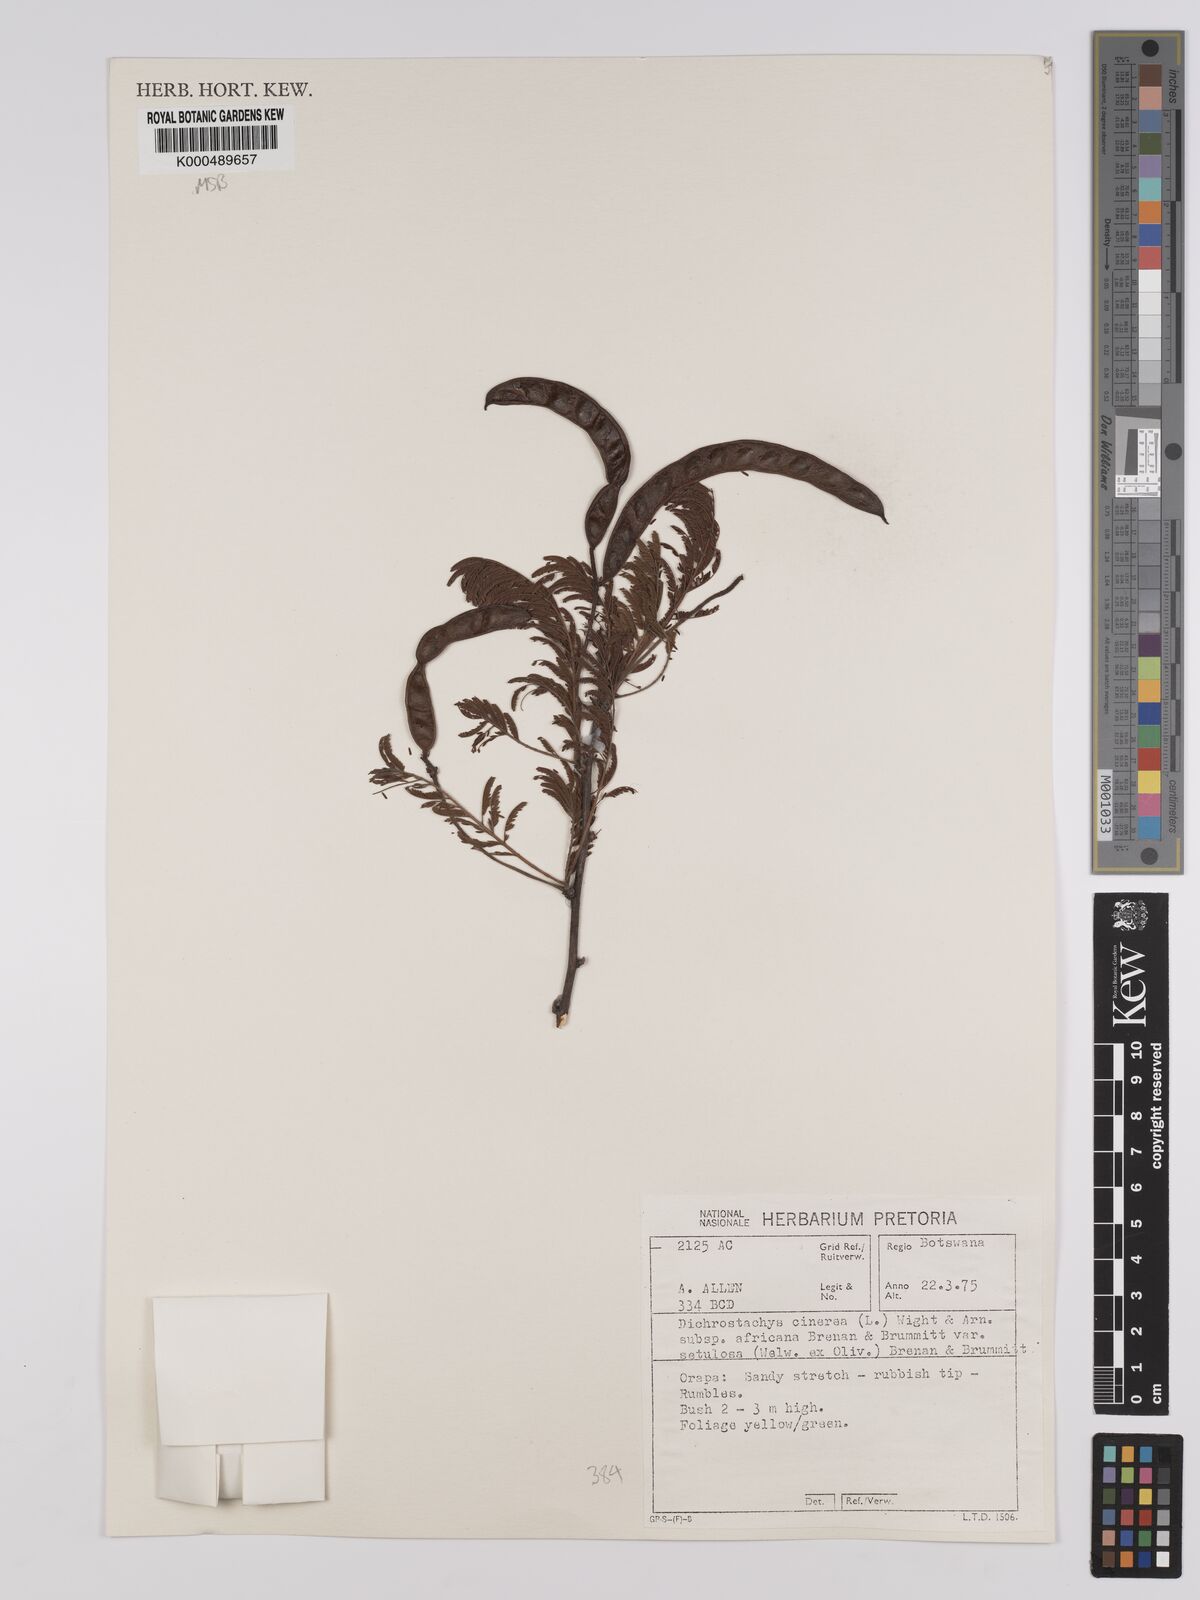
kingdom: Plantae
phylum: Tracheophyta
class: Magnoliopsida
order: Fabales
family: Fabaceae
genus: Dichrostachys
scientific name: Dichrostachys cinerea
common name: Sicklebush
